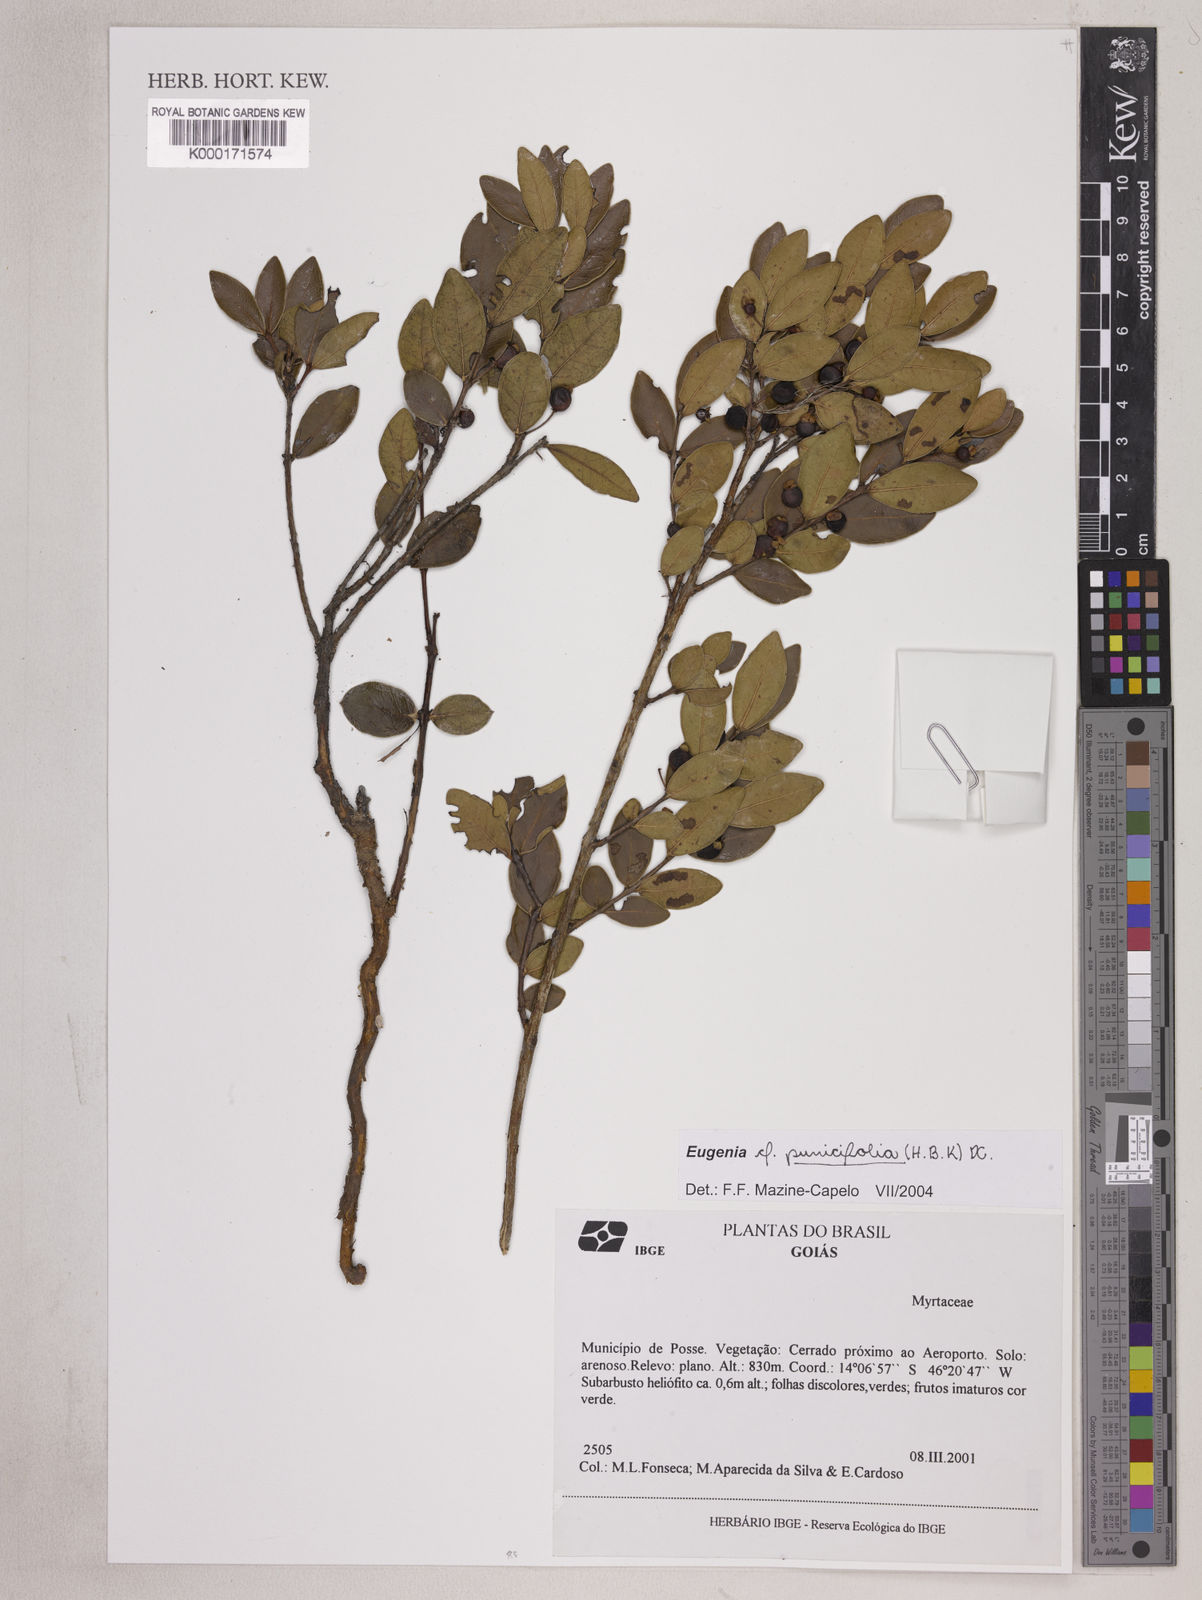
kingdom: Plantae
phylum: Tracheophyta
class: Magnoliopsida
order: Myrtales
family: Myrtaceae
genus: Eugenia
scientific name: Eugenia punicifolia
